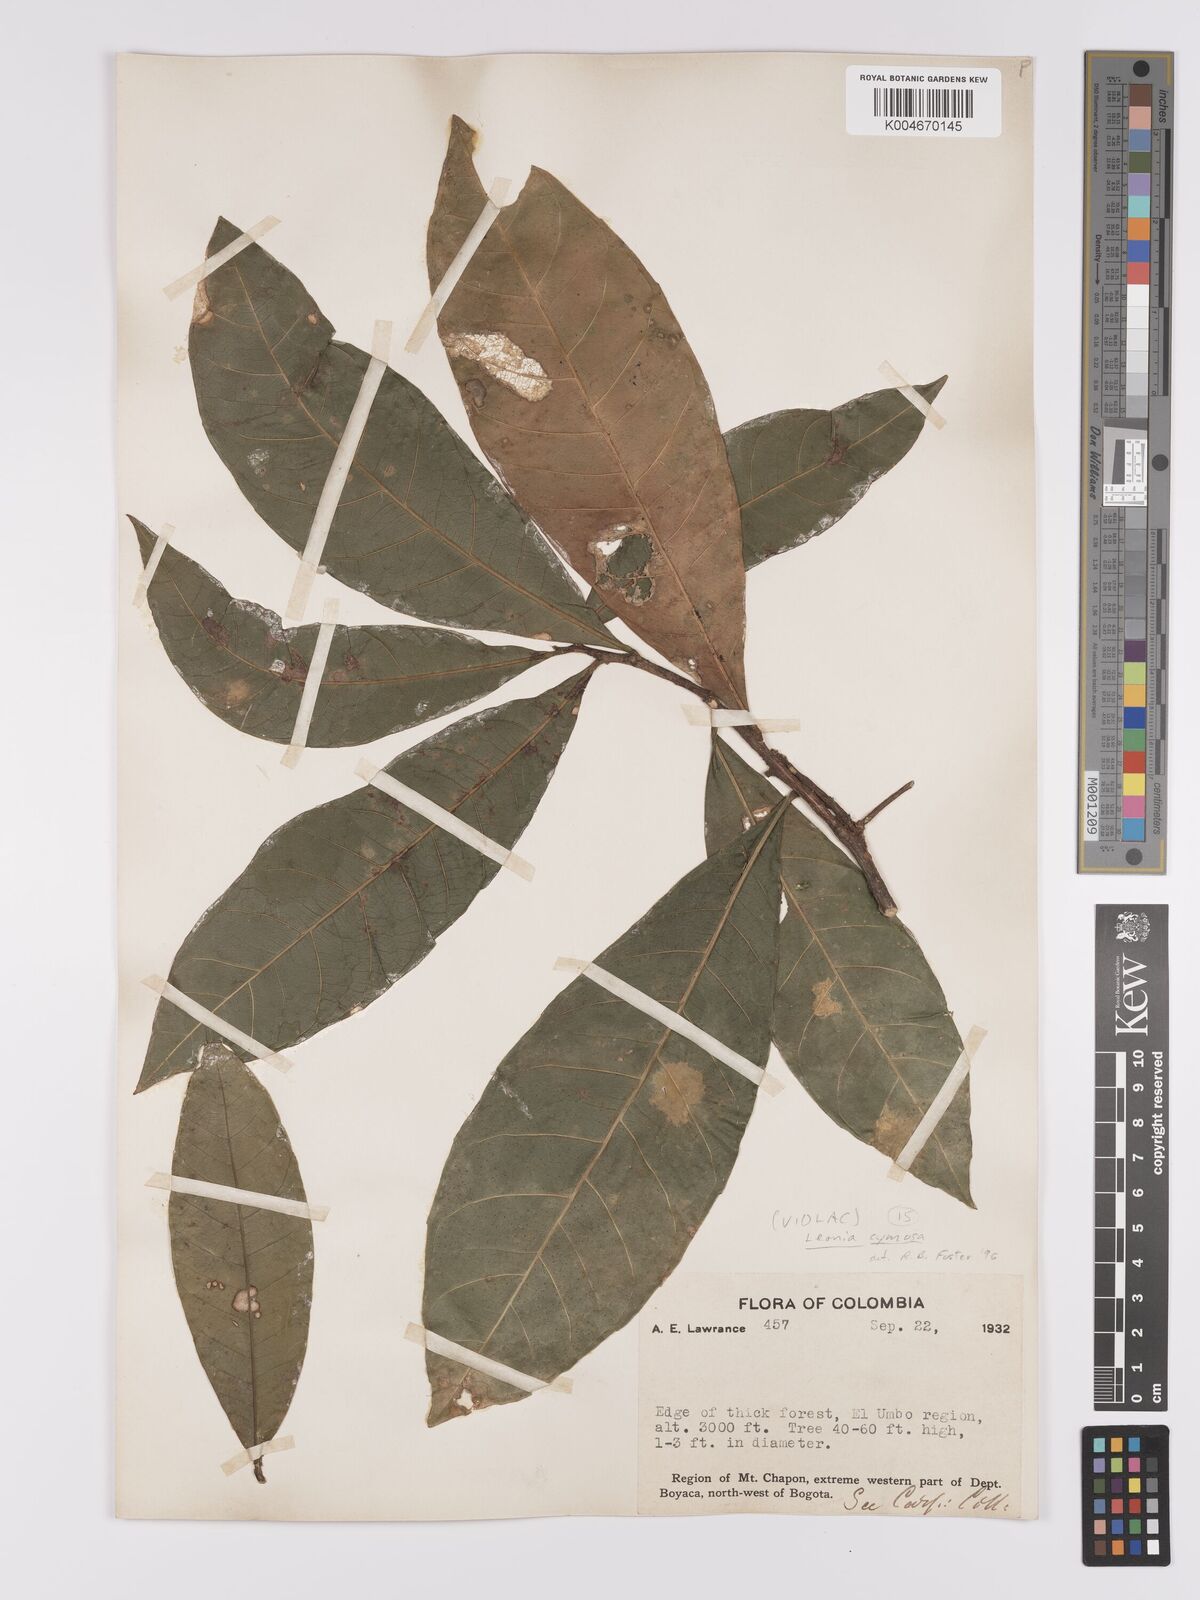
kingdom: Plantae
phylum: Tracheophyta
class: Magnoliopsida
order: Malpighiales
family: Violaceae
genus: Leonia
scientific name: Leonia cymosa
